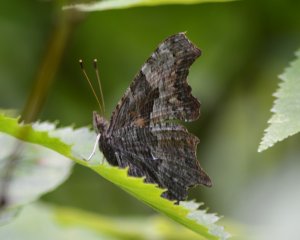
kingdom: Animalia
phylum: Arthropoda
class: Insecta
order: Lepidoptera
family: Nymphalidae
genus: Polygonia
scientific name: Polygonia progne
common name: Gray Comma
